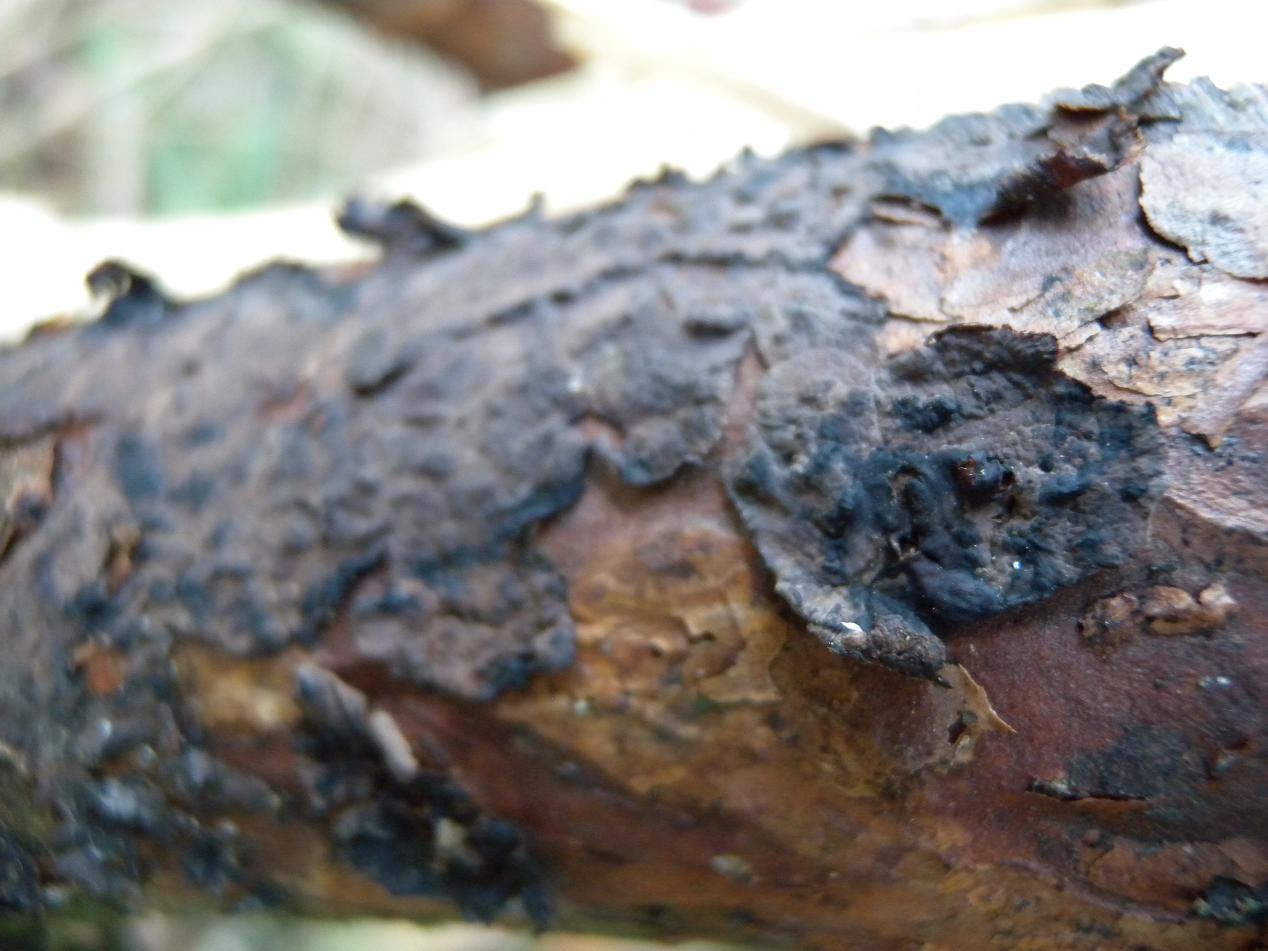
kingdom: Fungi
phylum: Basidiomycota
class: Agaricomycetes
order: Russulales
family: Peniophoraceae
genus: Peniophora
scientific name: Peniophora pini
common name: fyrre-voksskind
